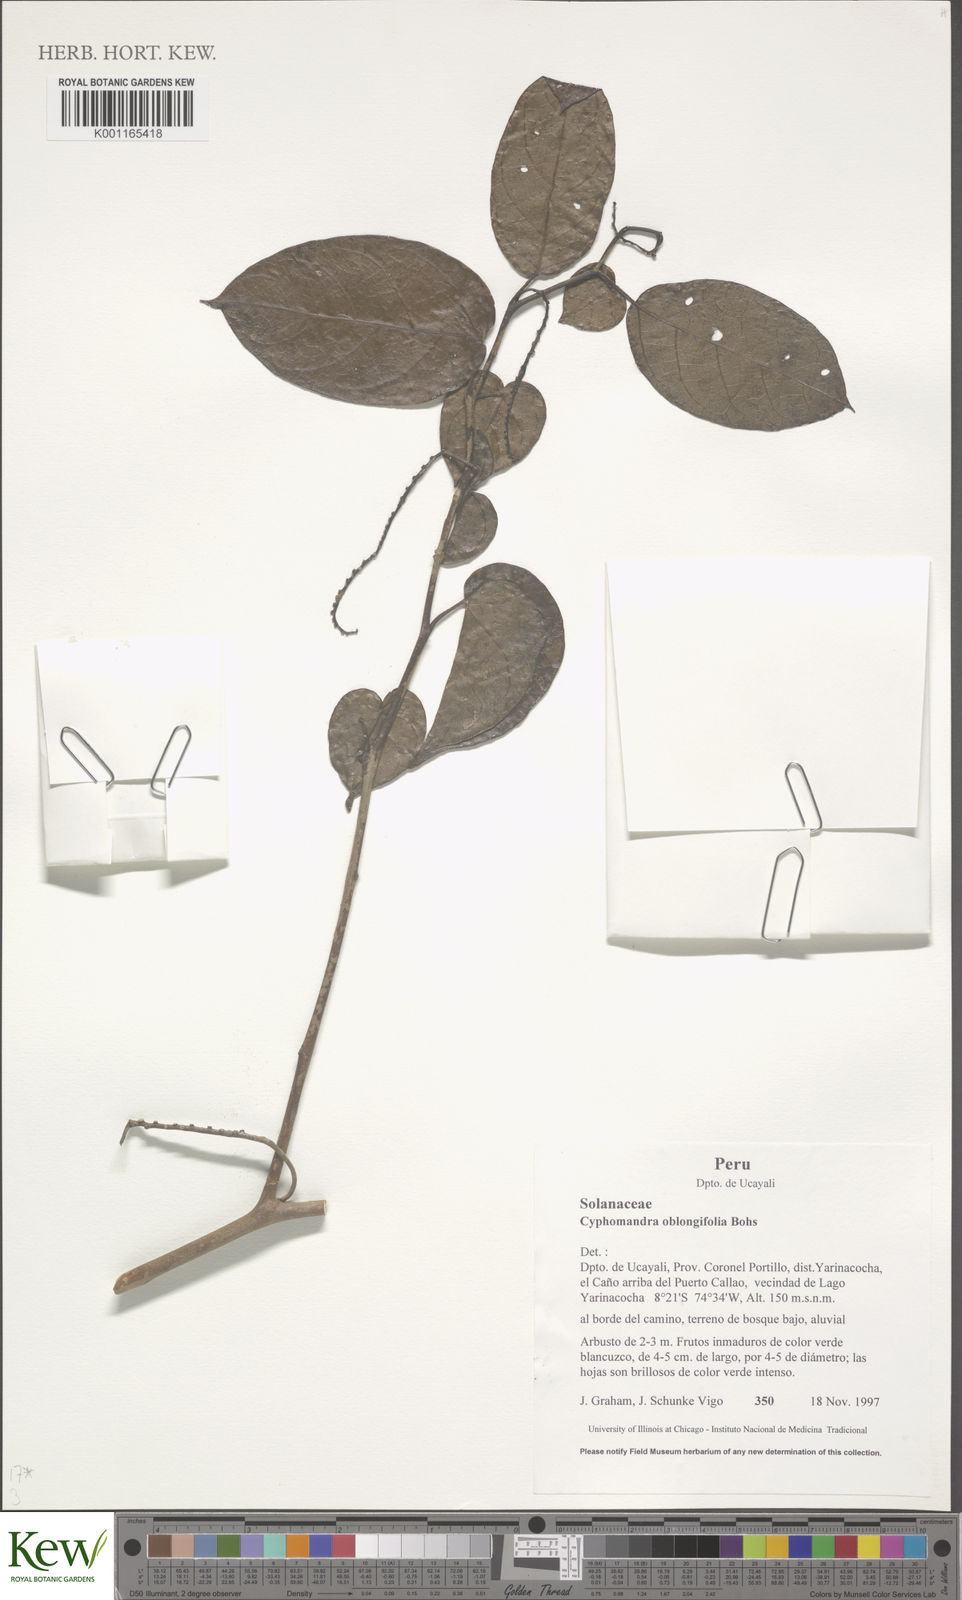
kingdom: Plantae
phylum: Tracheophyta
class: Magnoliopsida
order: Solanales
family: Solanaceae
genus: Solanum
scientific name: Solanum proteanthum
